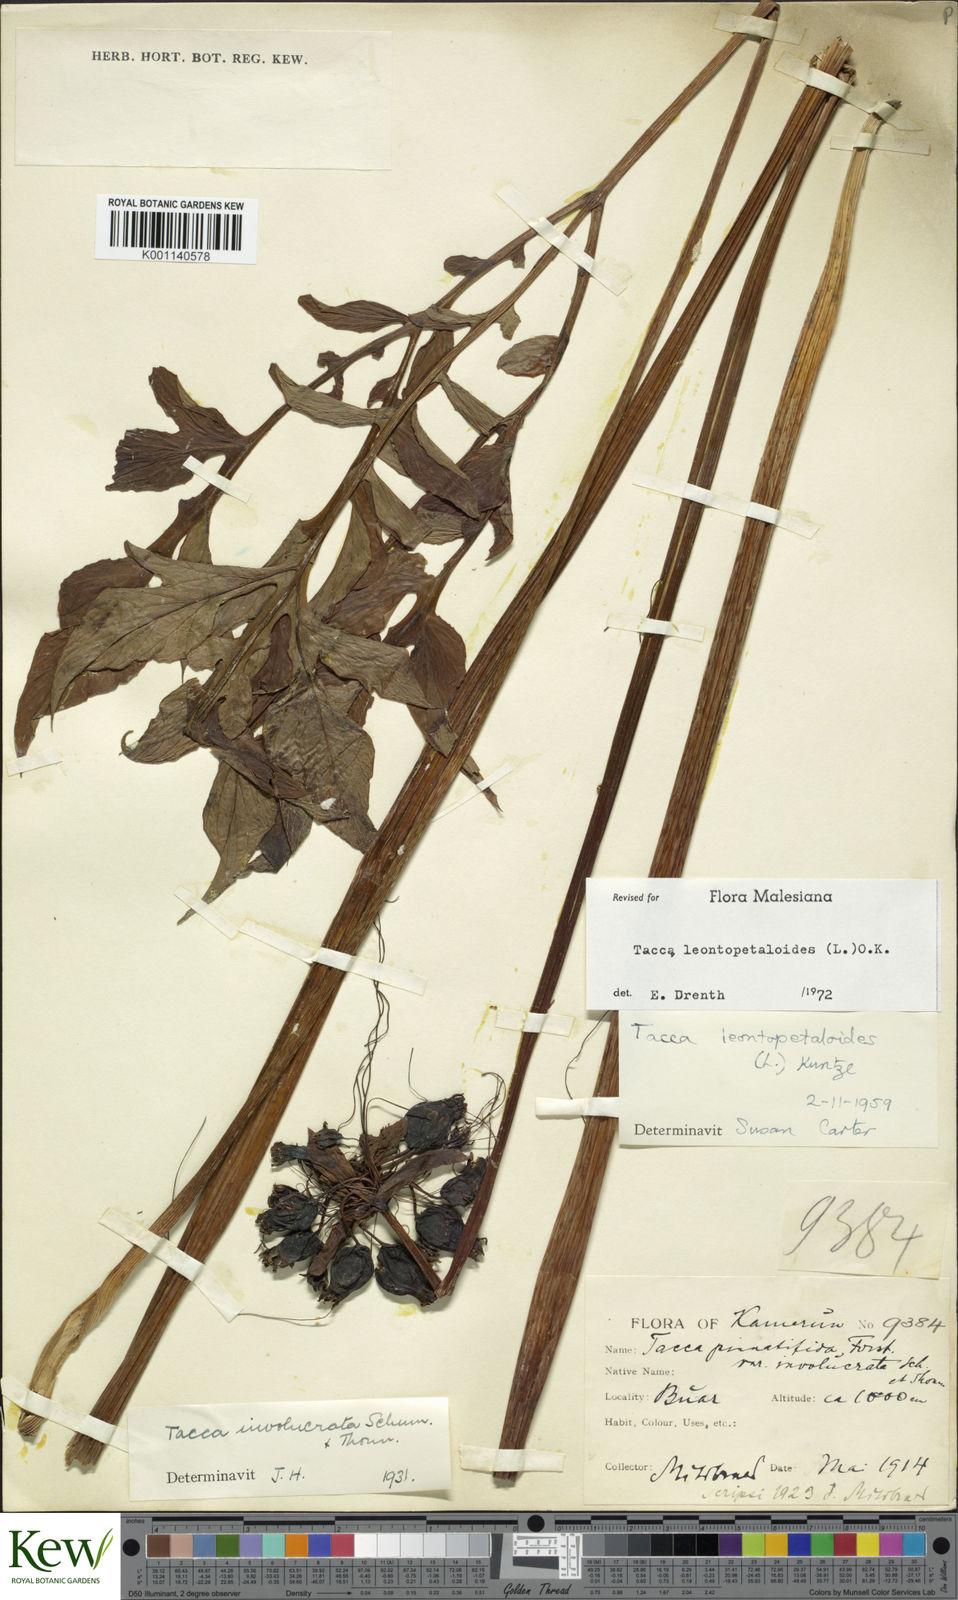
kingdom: Plantae
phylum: Tracheophyta
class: Liliopsida
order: Dioscoreales
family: Dioscoreaceae
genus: Tacca
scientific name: Tacca leontopetaloides
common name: Arrowroot
